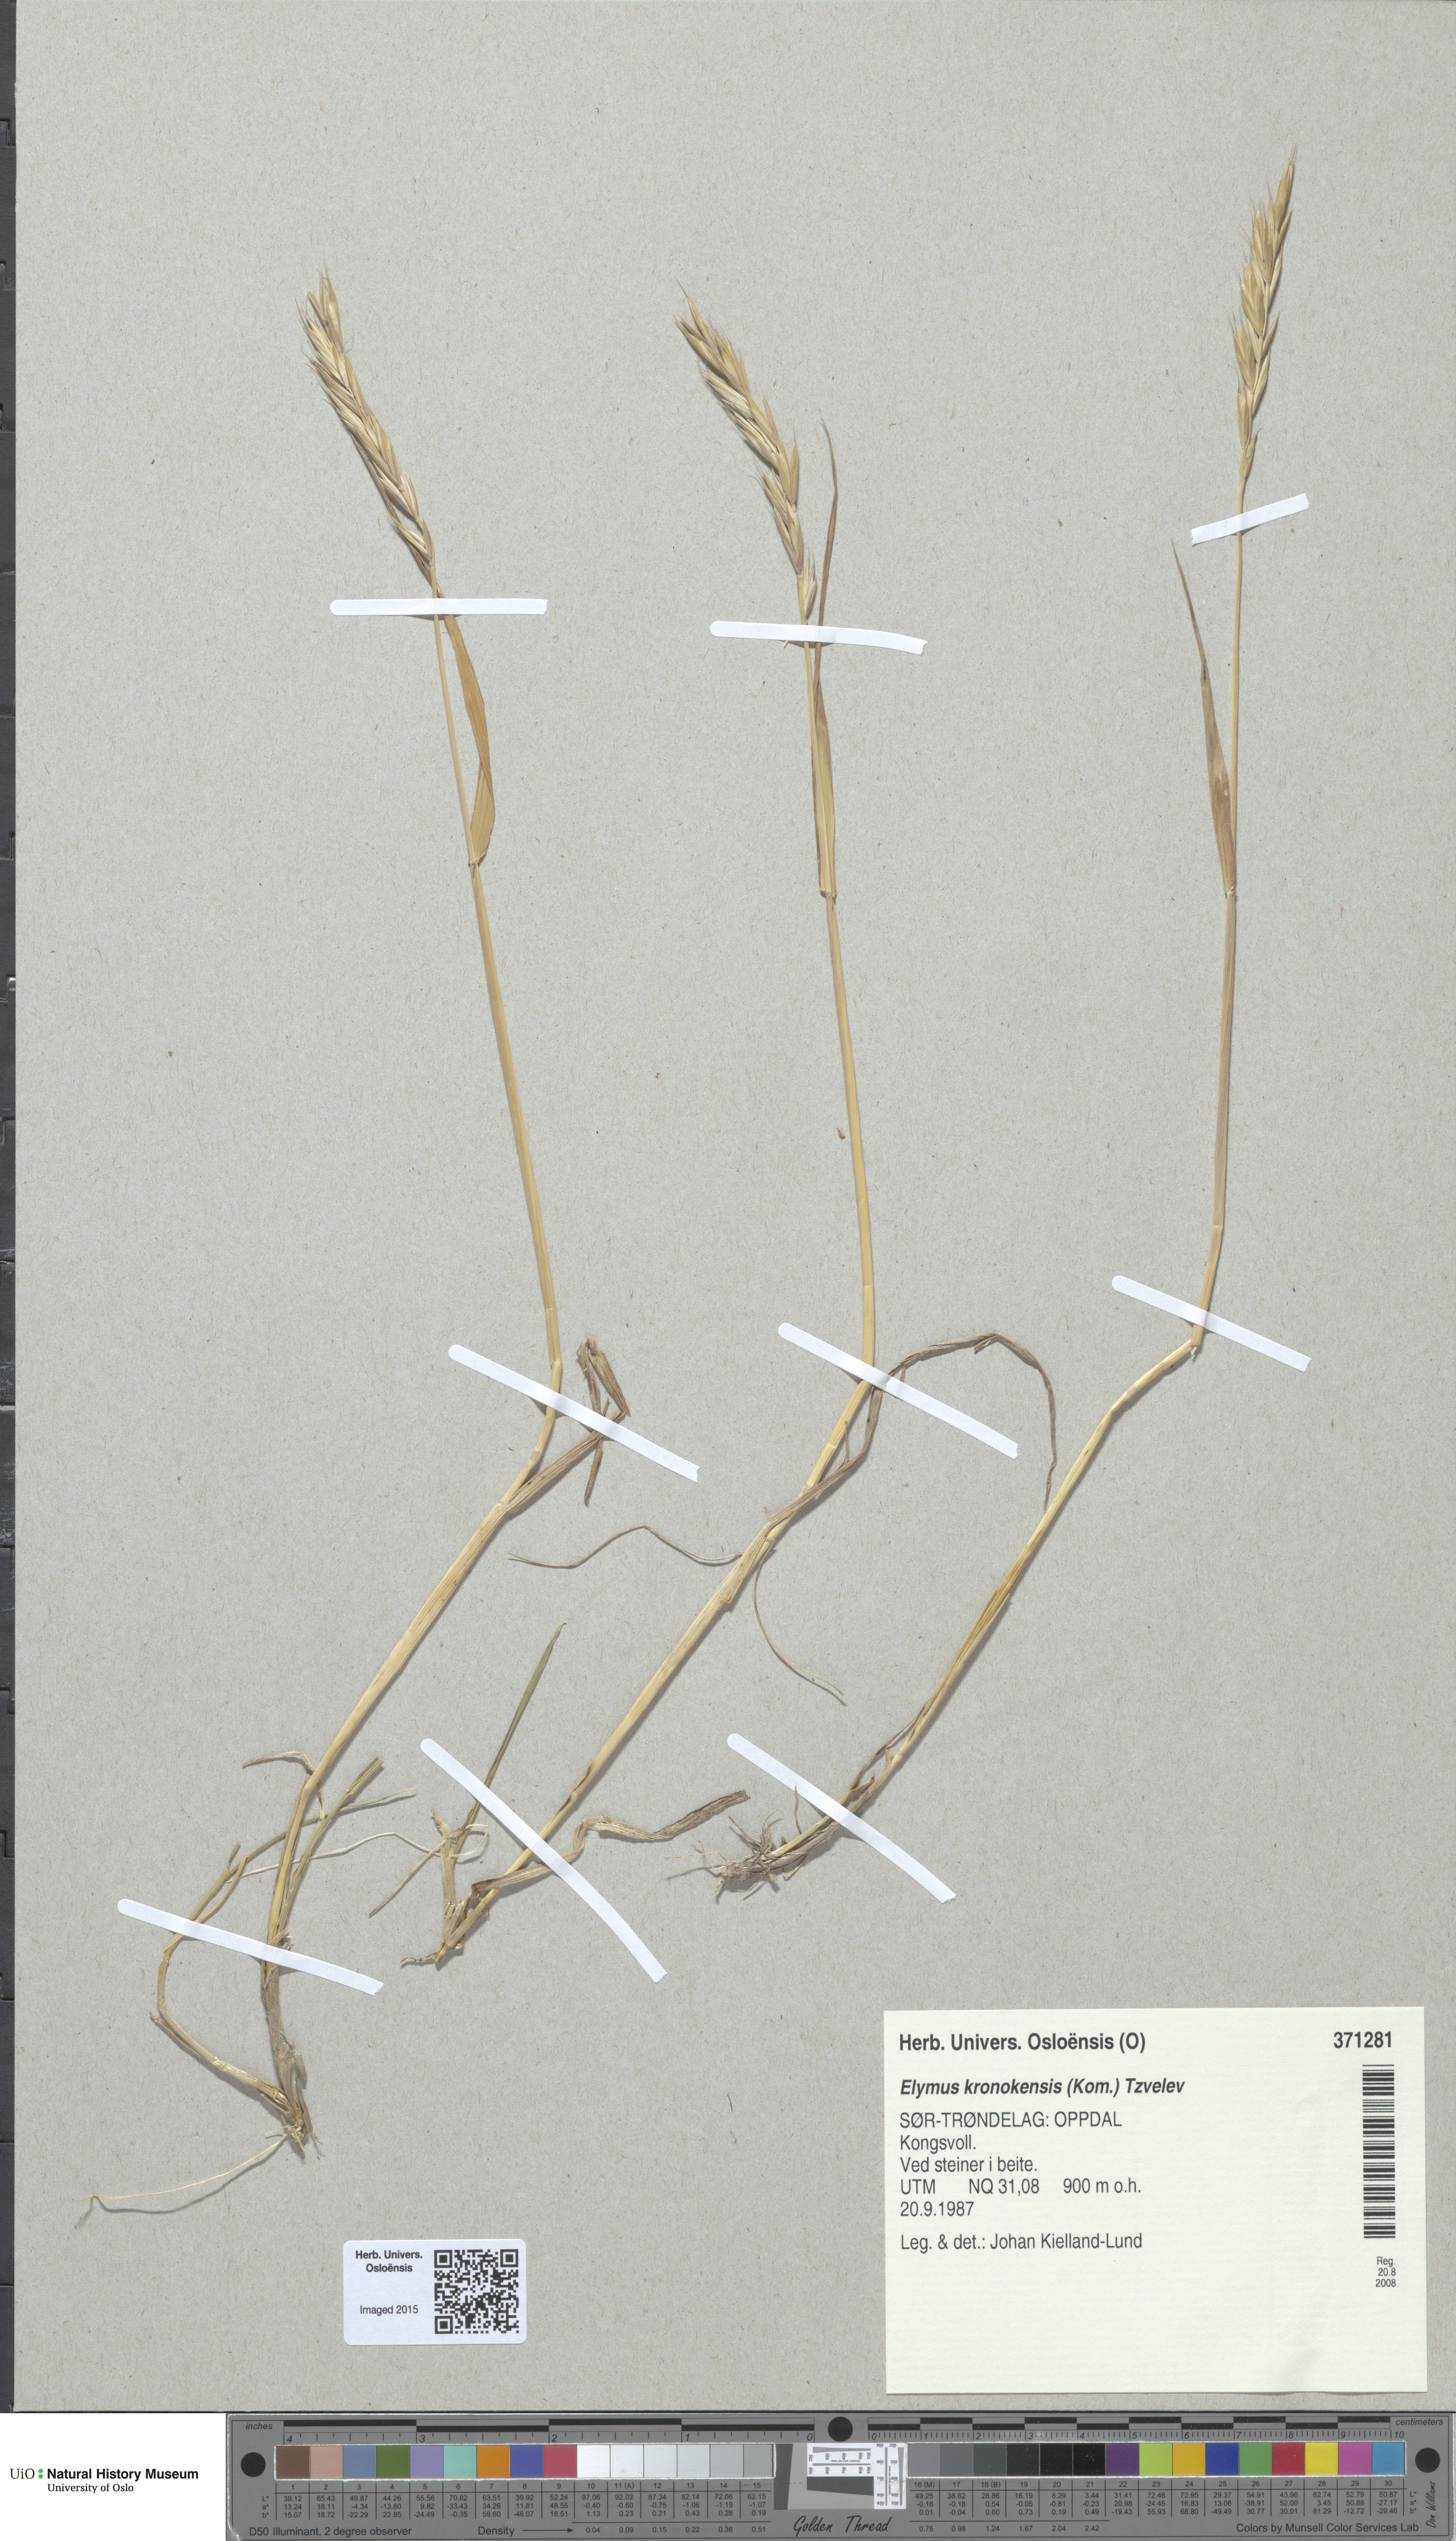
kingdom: Plantae
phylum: Tracheophyta
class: Liliopsida
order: Poales
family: Poaceae
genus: Elymus
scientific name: Elymus alaskanus
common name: Alaska wheatgrass
